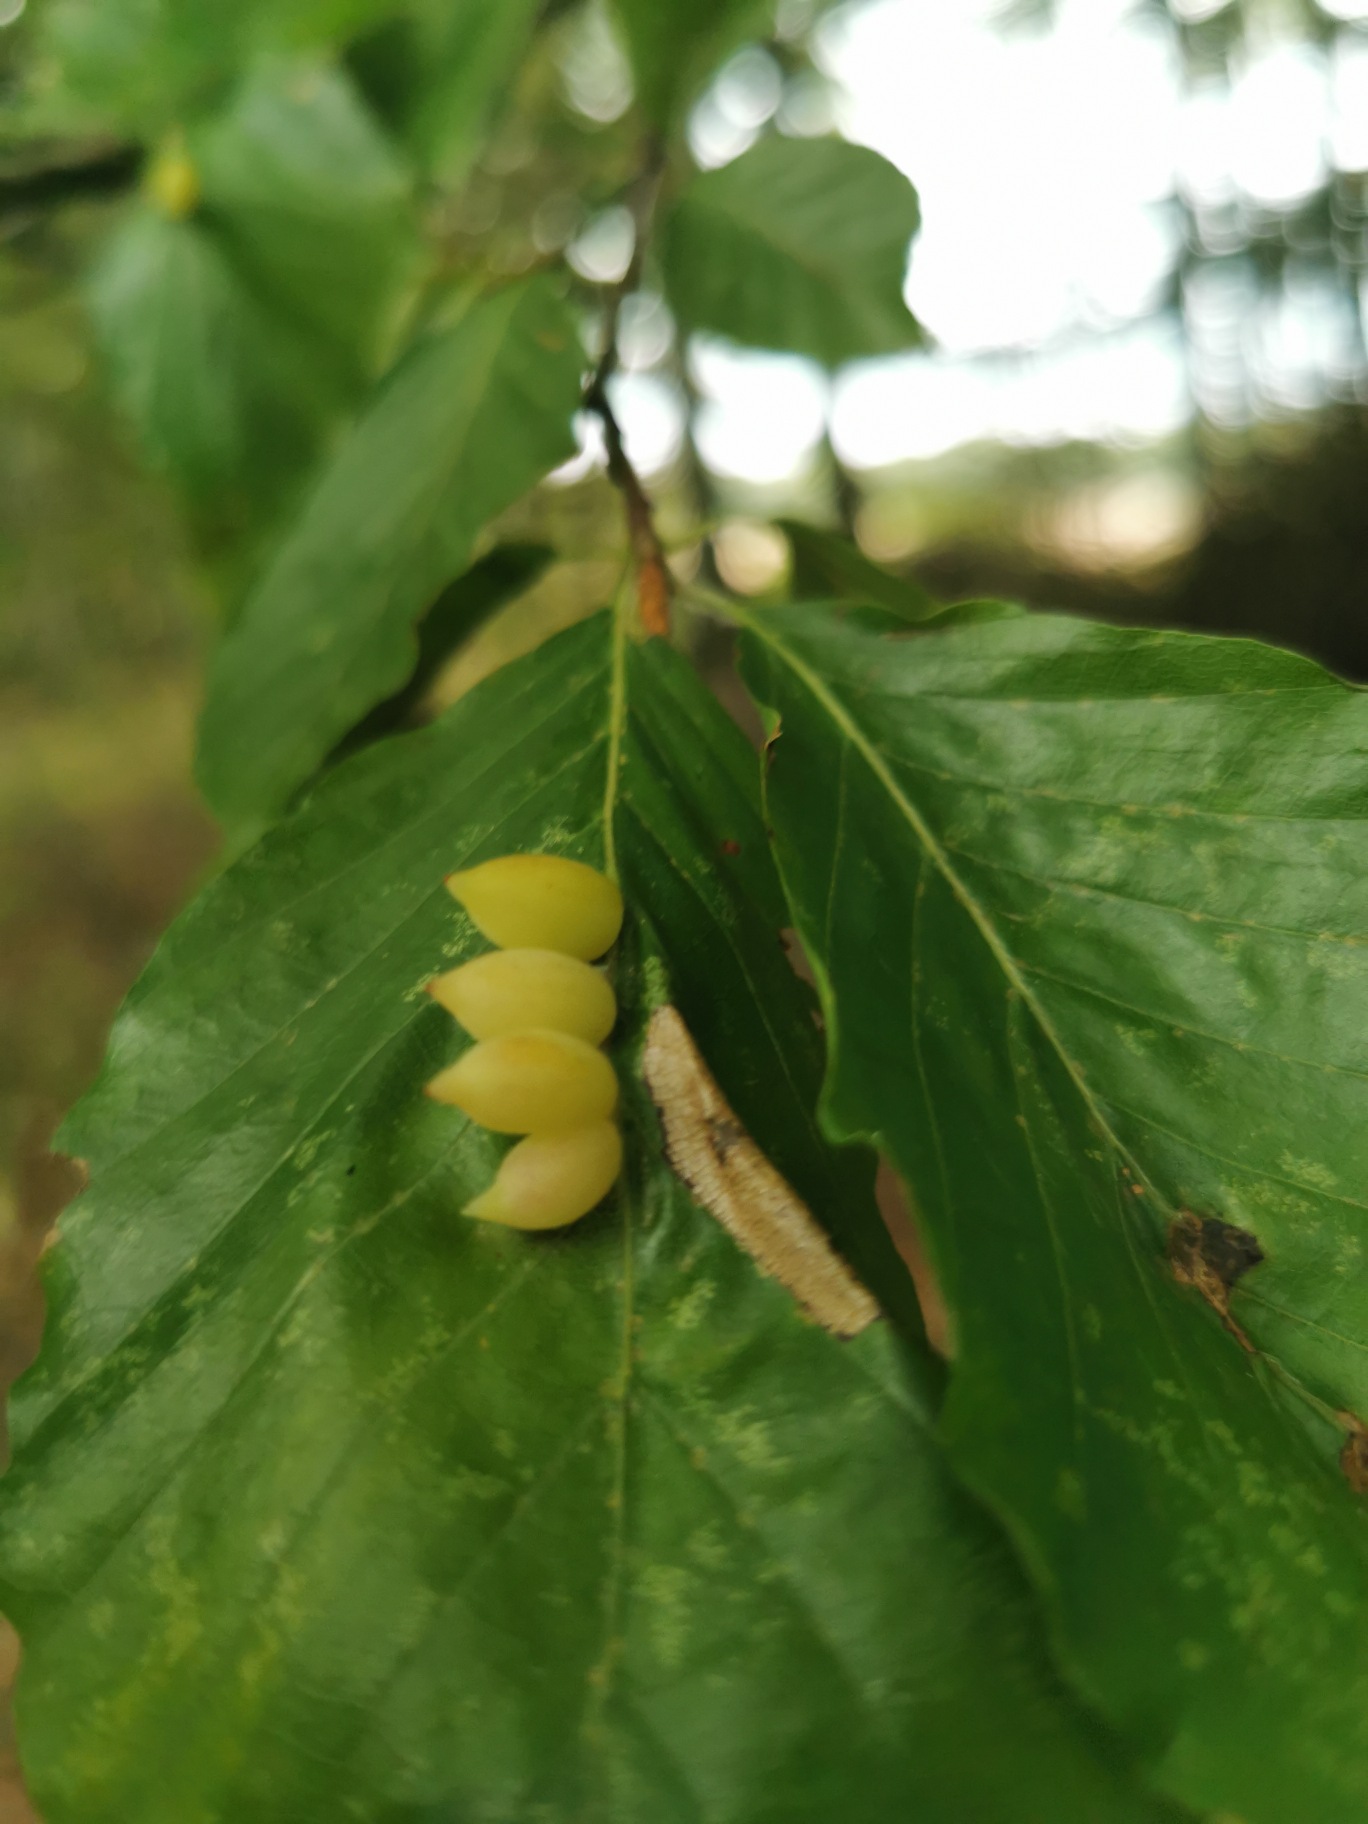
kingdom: Plantae
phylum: Tracheophyta
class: Magnoliopsida
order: Fagales
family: Fagaceae
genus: Fagus
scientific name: Fagus sylvatica
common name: Bøg
